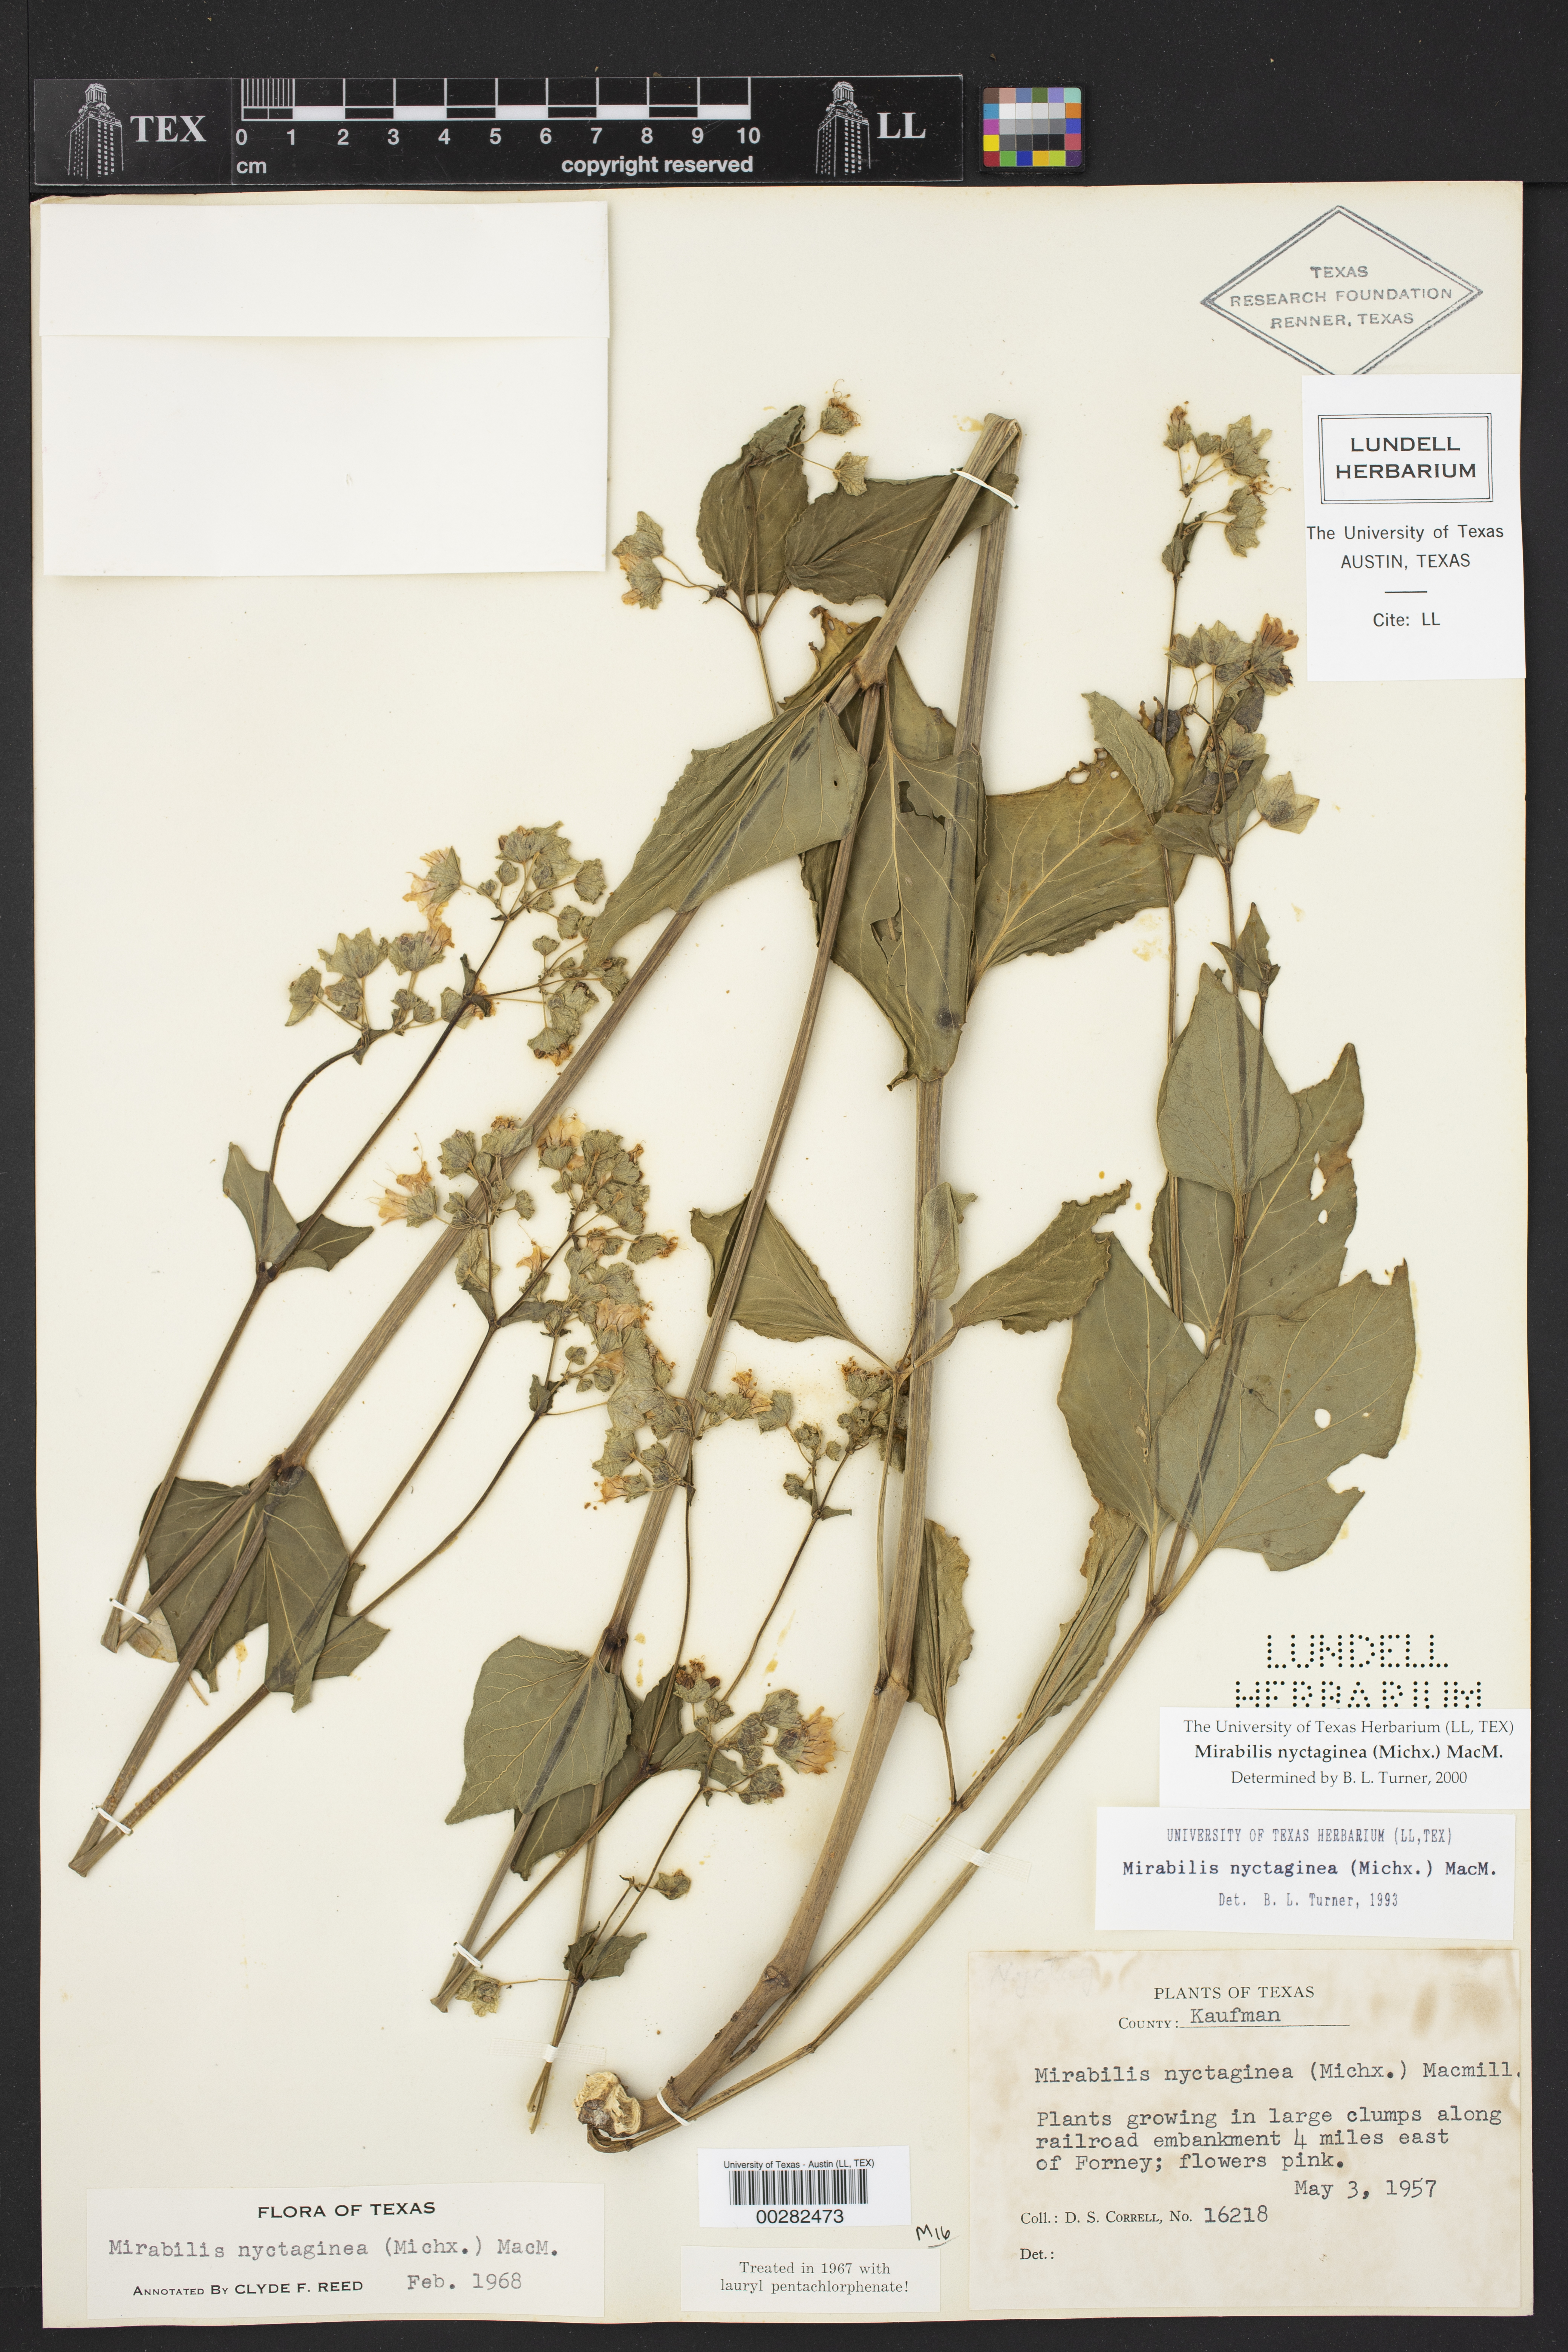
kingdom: Plantae
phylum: Tracheophyta
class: Magnoliopsida
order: Caryophyllales
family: Nyctaginaceae
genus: Mirabilis
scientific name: Mirabilis nyctaginea
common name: Umbrella wort
